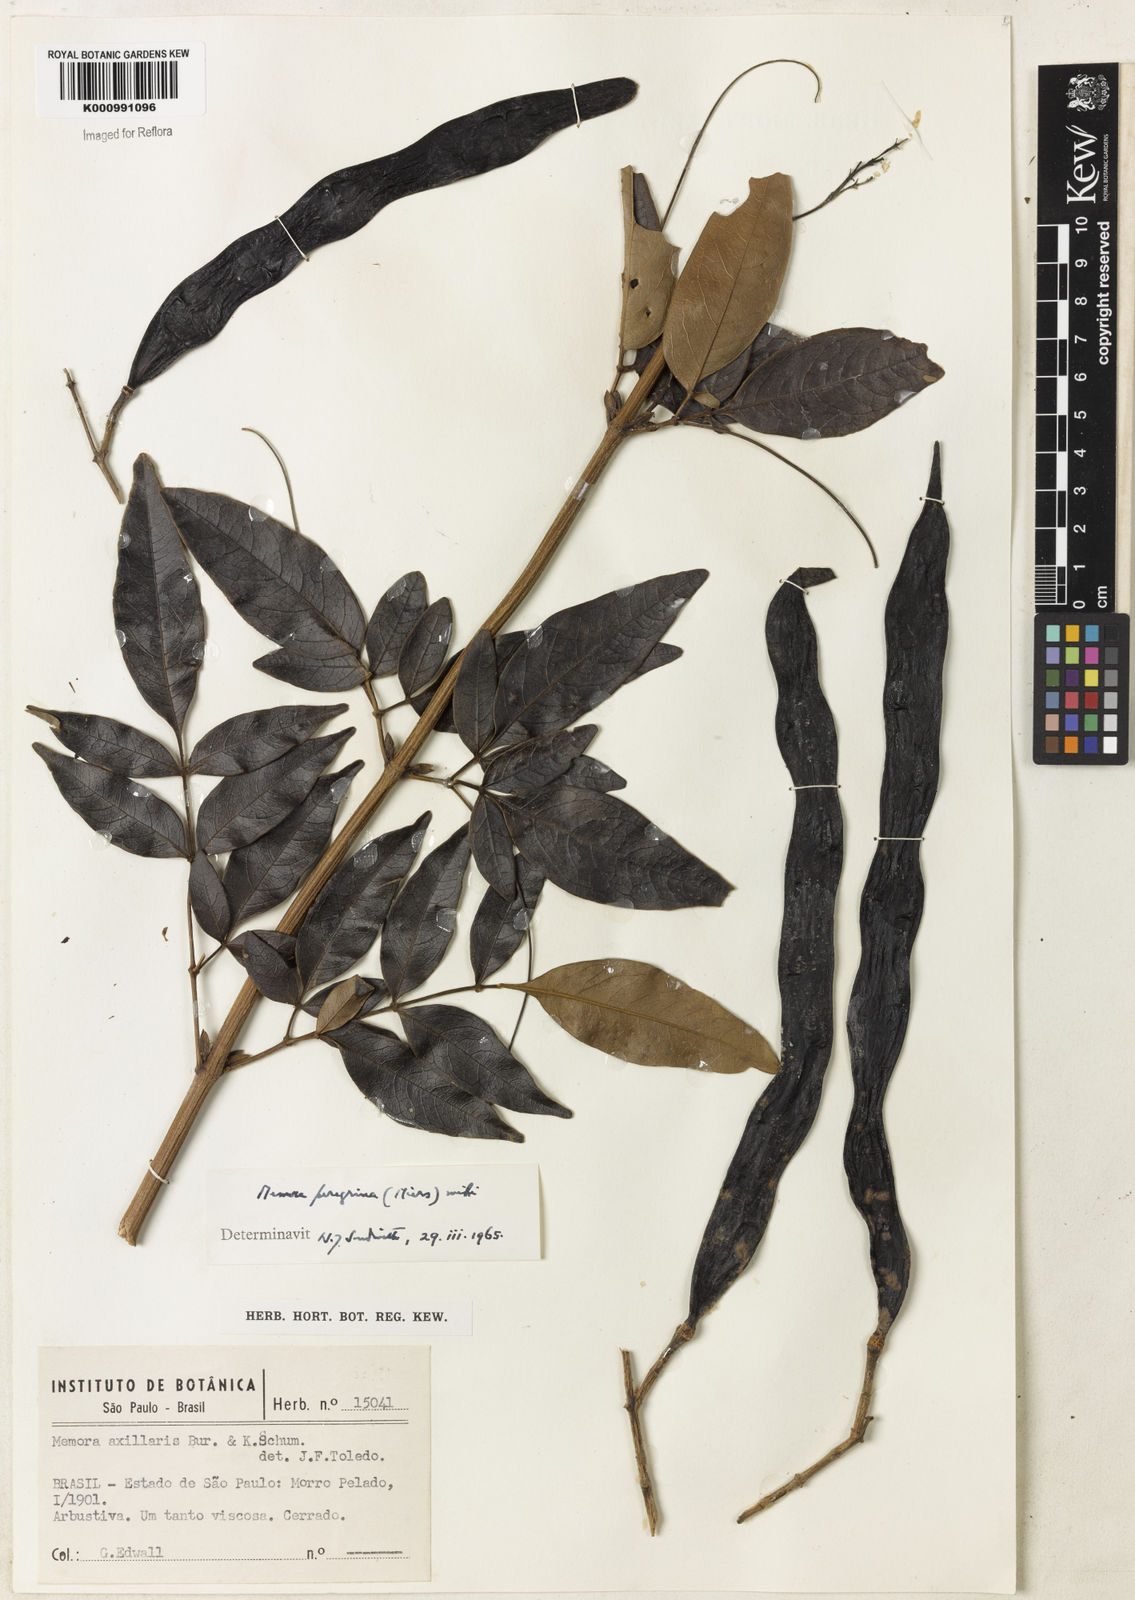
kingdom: Plantae
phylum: Tracheophyta
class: Magnoliopsida
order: Lamiales
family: Bignoniaceae
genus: Adenocalymma
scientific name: Adenocalymma peregrinum
